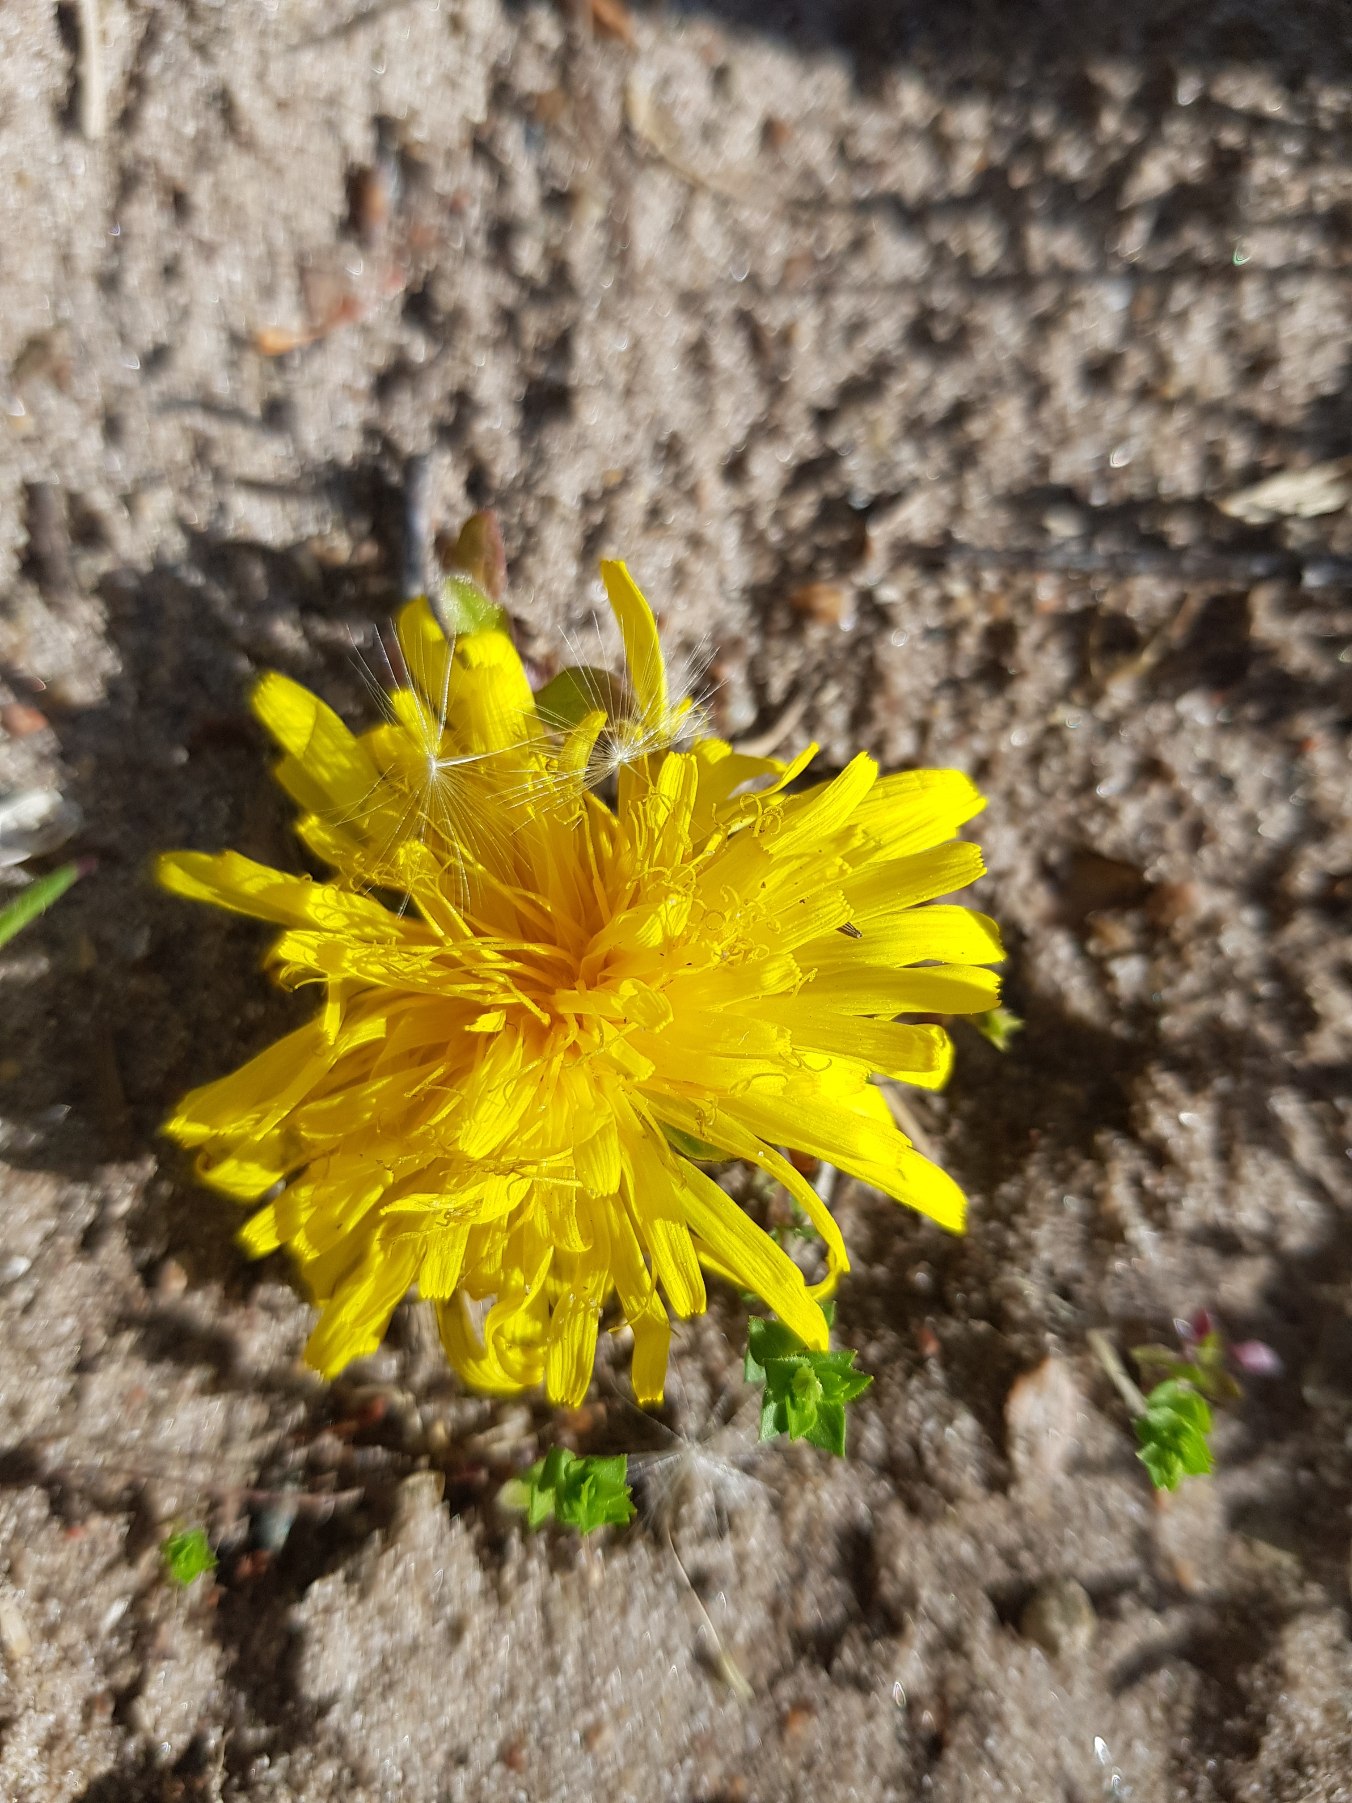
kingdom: Plantae
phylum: Tracheophyta
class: Magnoliopsida
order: Asterales
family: Asteraceae
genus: Taraxacum
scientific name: Taraxacum
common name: Mælkebøtteslægten
